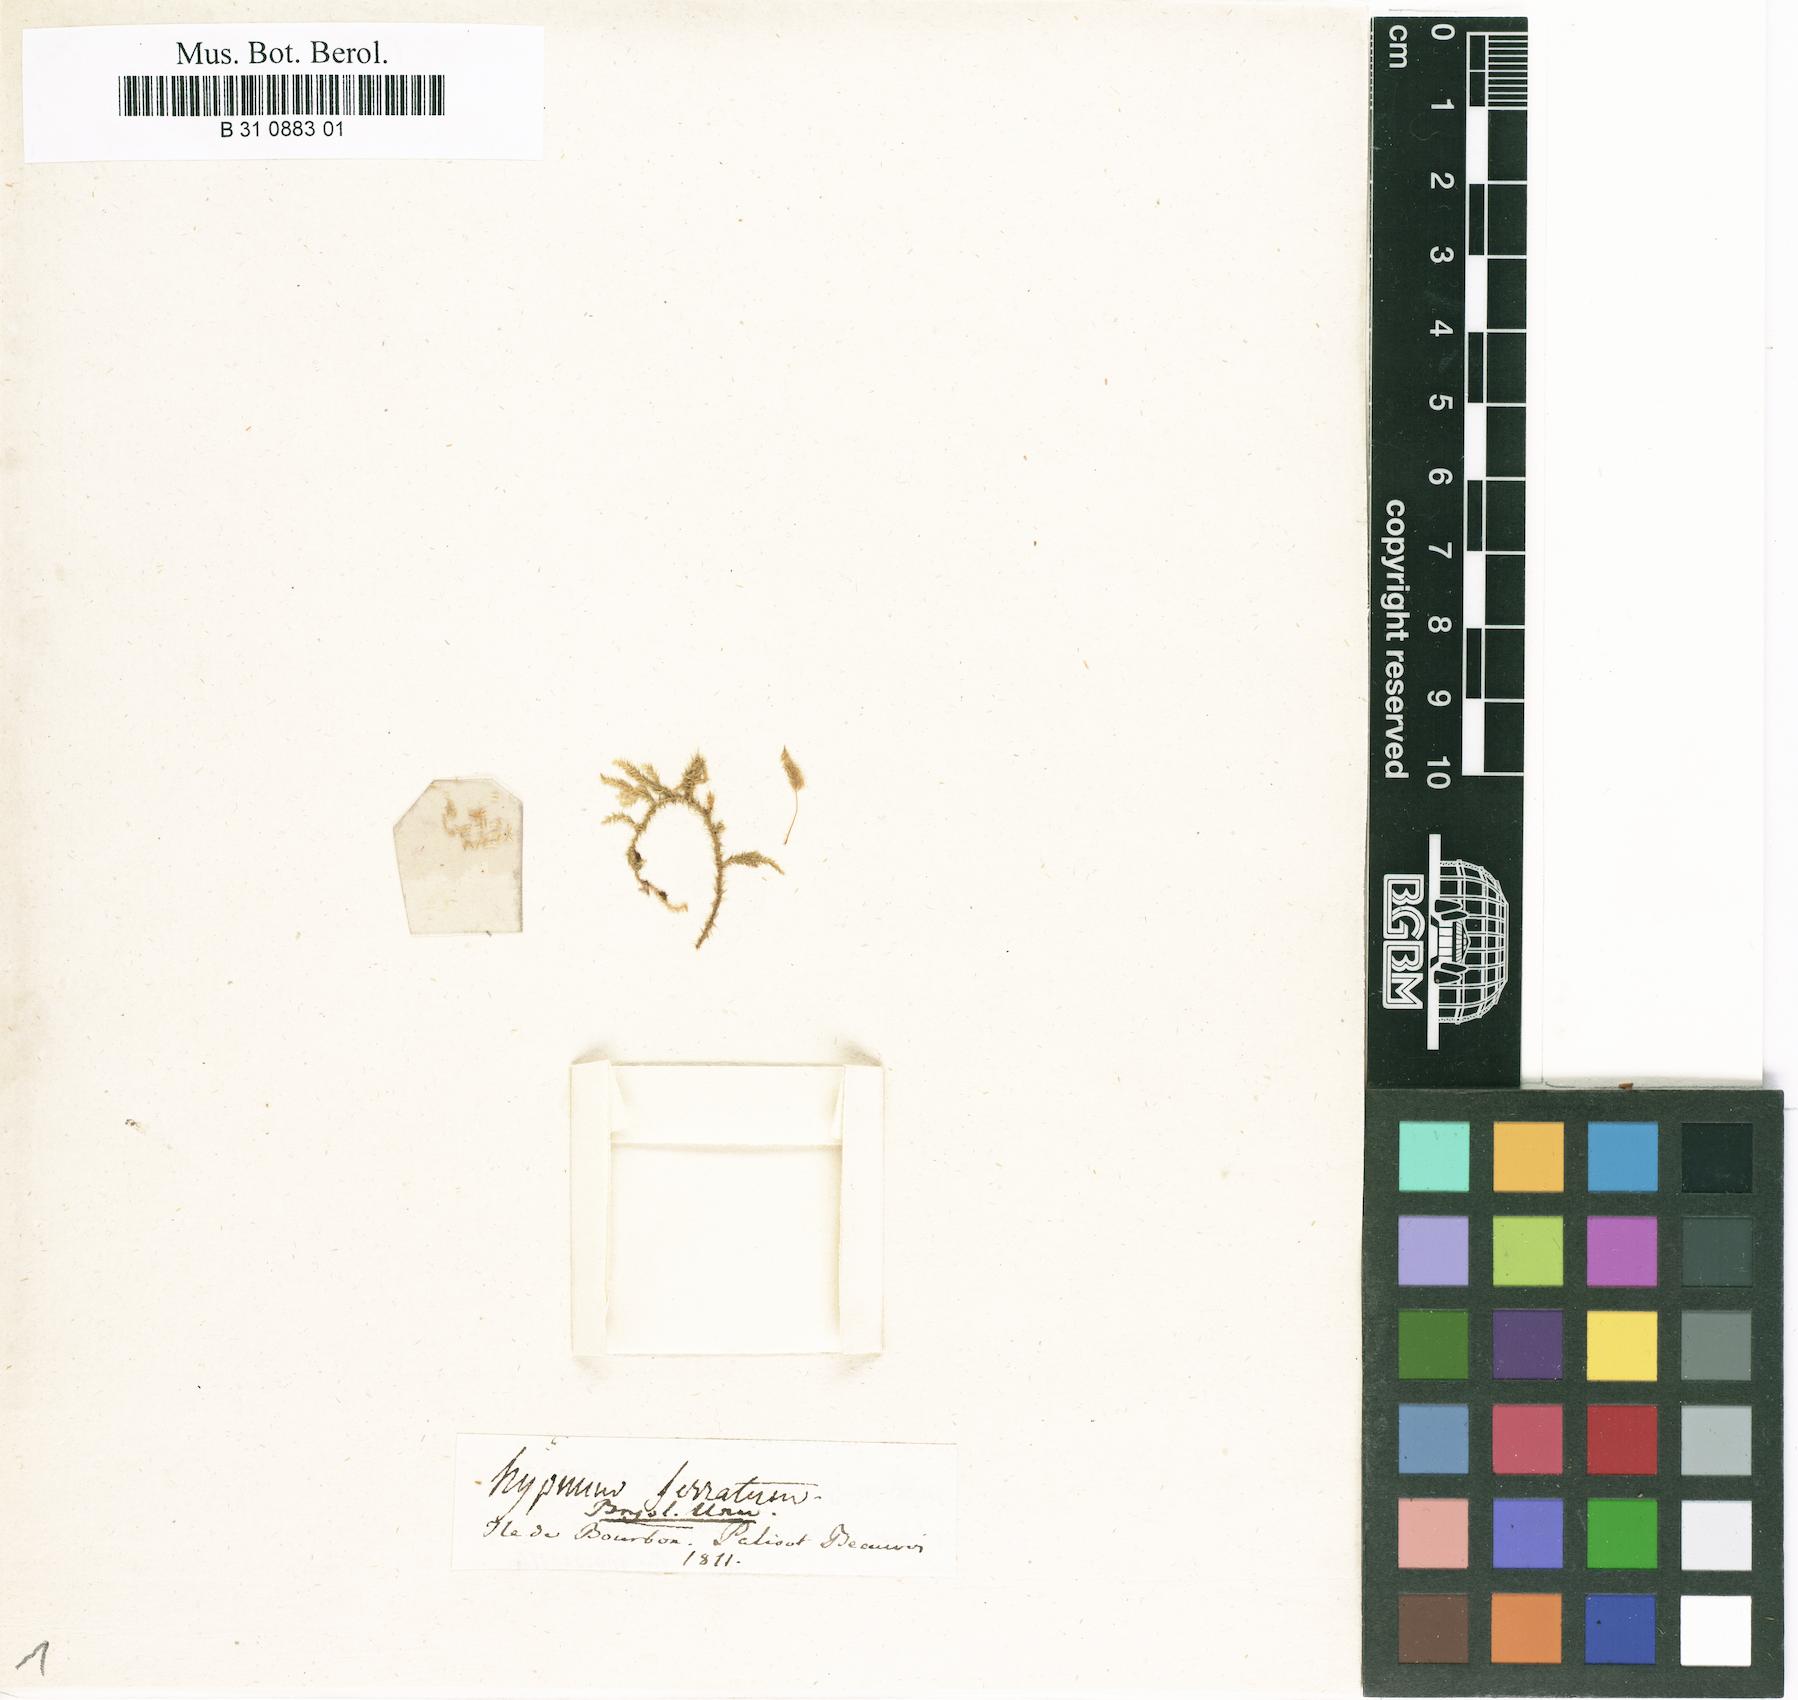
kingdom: Plantae
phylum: Bryophyta
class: Bryopsida
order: Bryales
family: Mniaceae
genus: Mnium
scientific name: Mnium marginatum
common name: Bordered leafy moss
